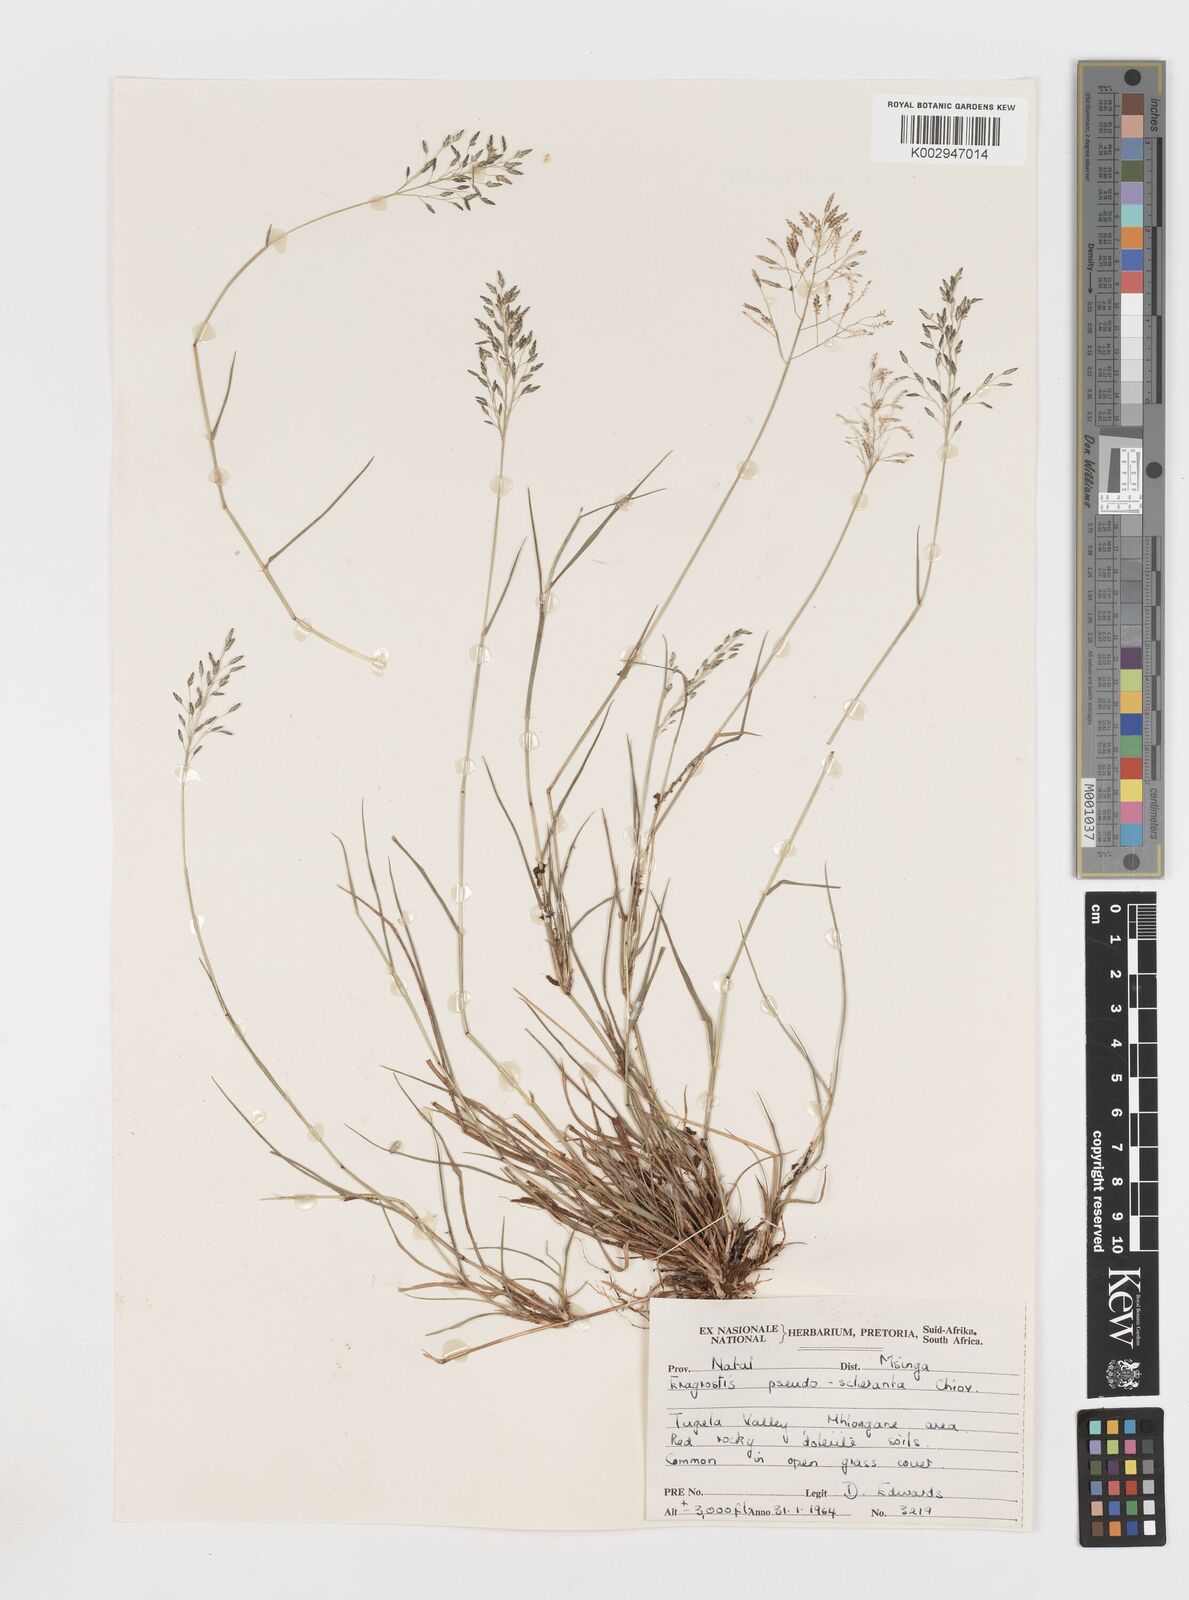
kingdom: Plantae
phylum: Tracheophyta
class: Liliopsida
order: Poales
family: Poaceae
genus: Eragrostis
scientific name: Eragrostis patentipilosa
